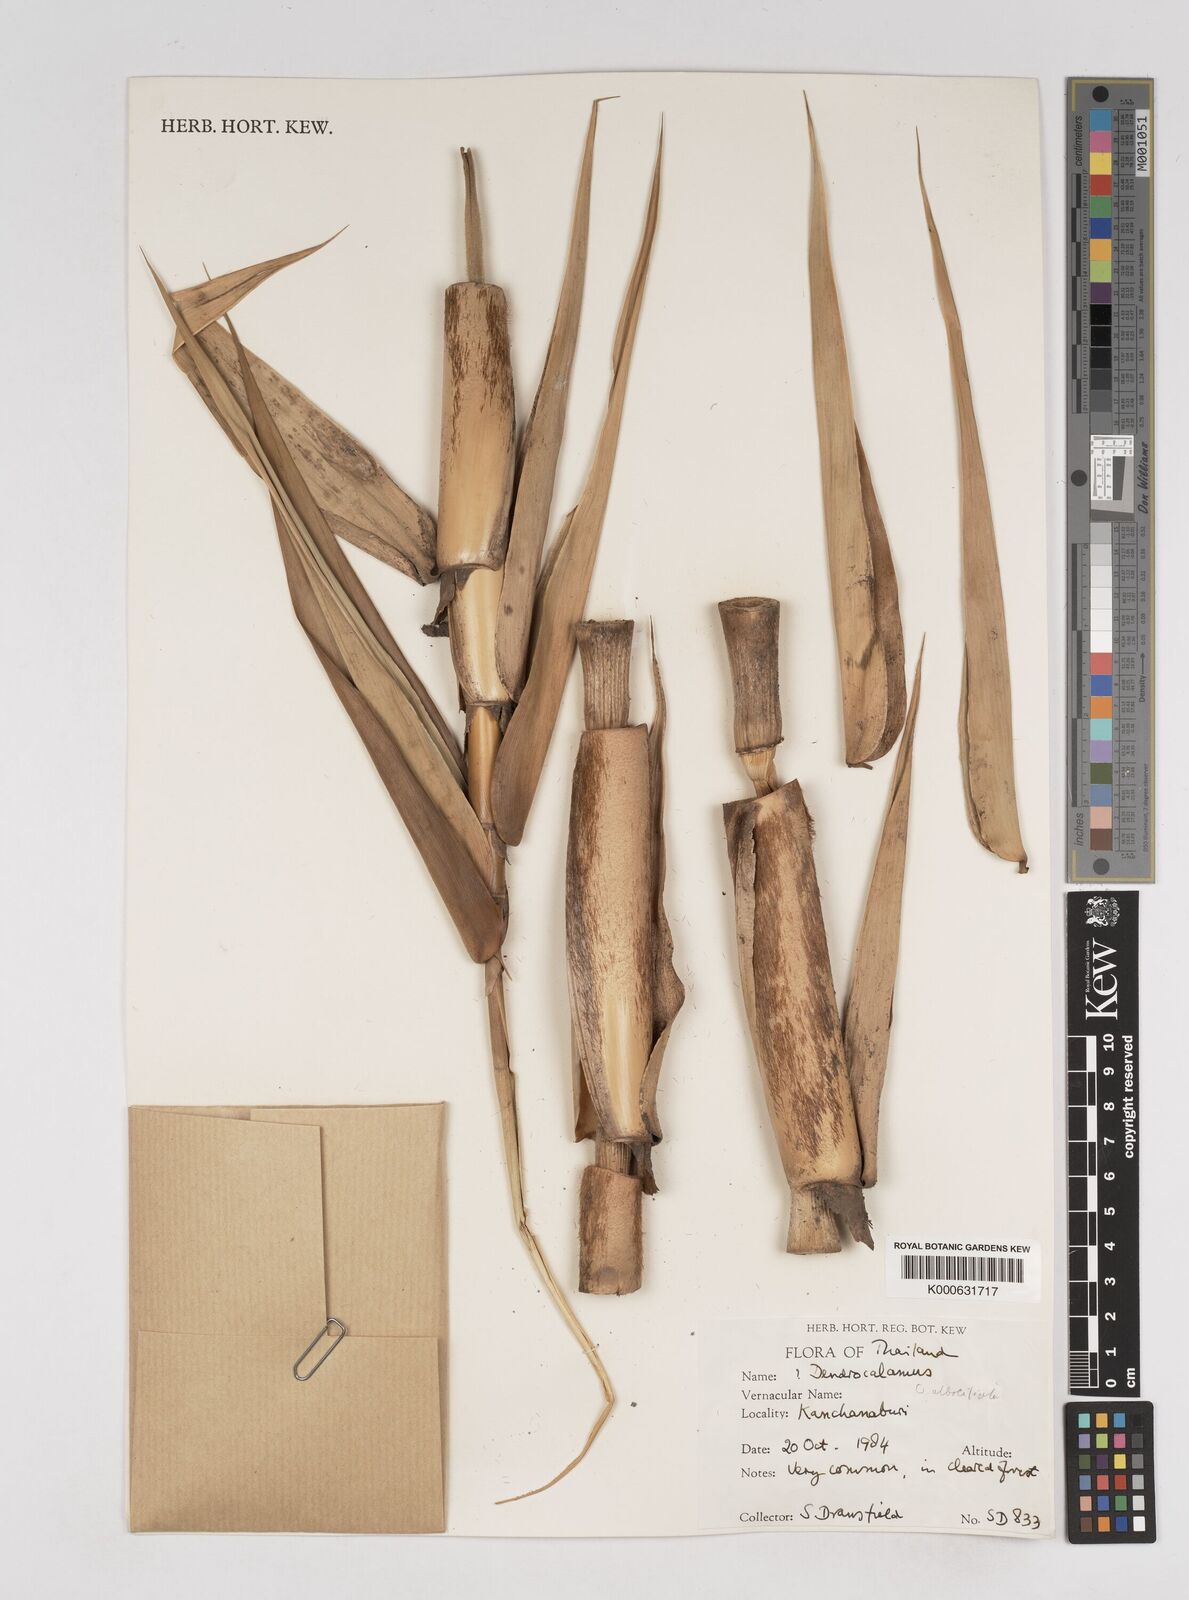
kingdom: Plantae
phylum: Tracheophyta
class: Liliopsida
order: Poales
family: Poaceae
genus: Gigantochloa
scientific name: Gigantochloa albociliata
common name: White-fringe gigantochloa
